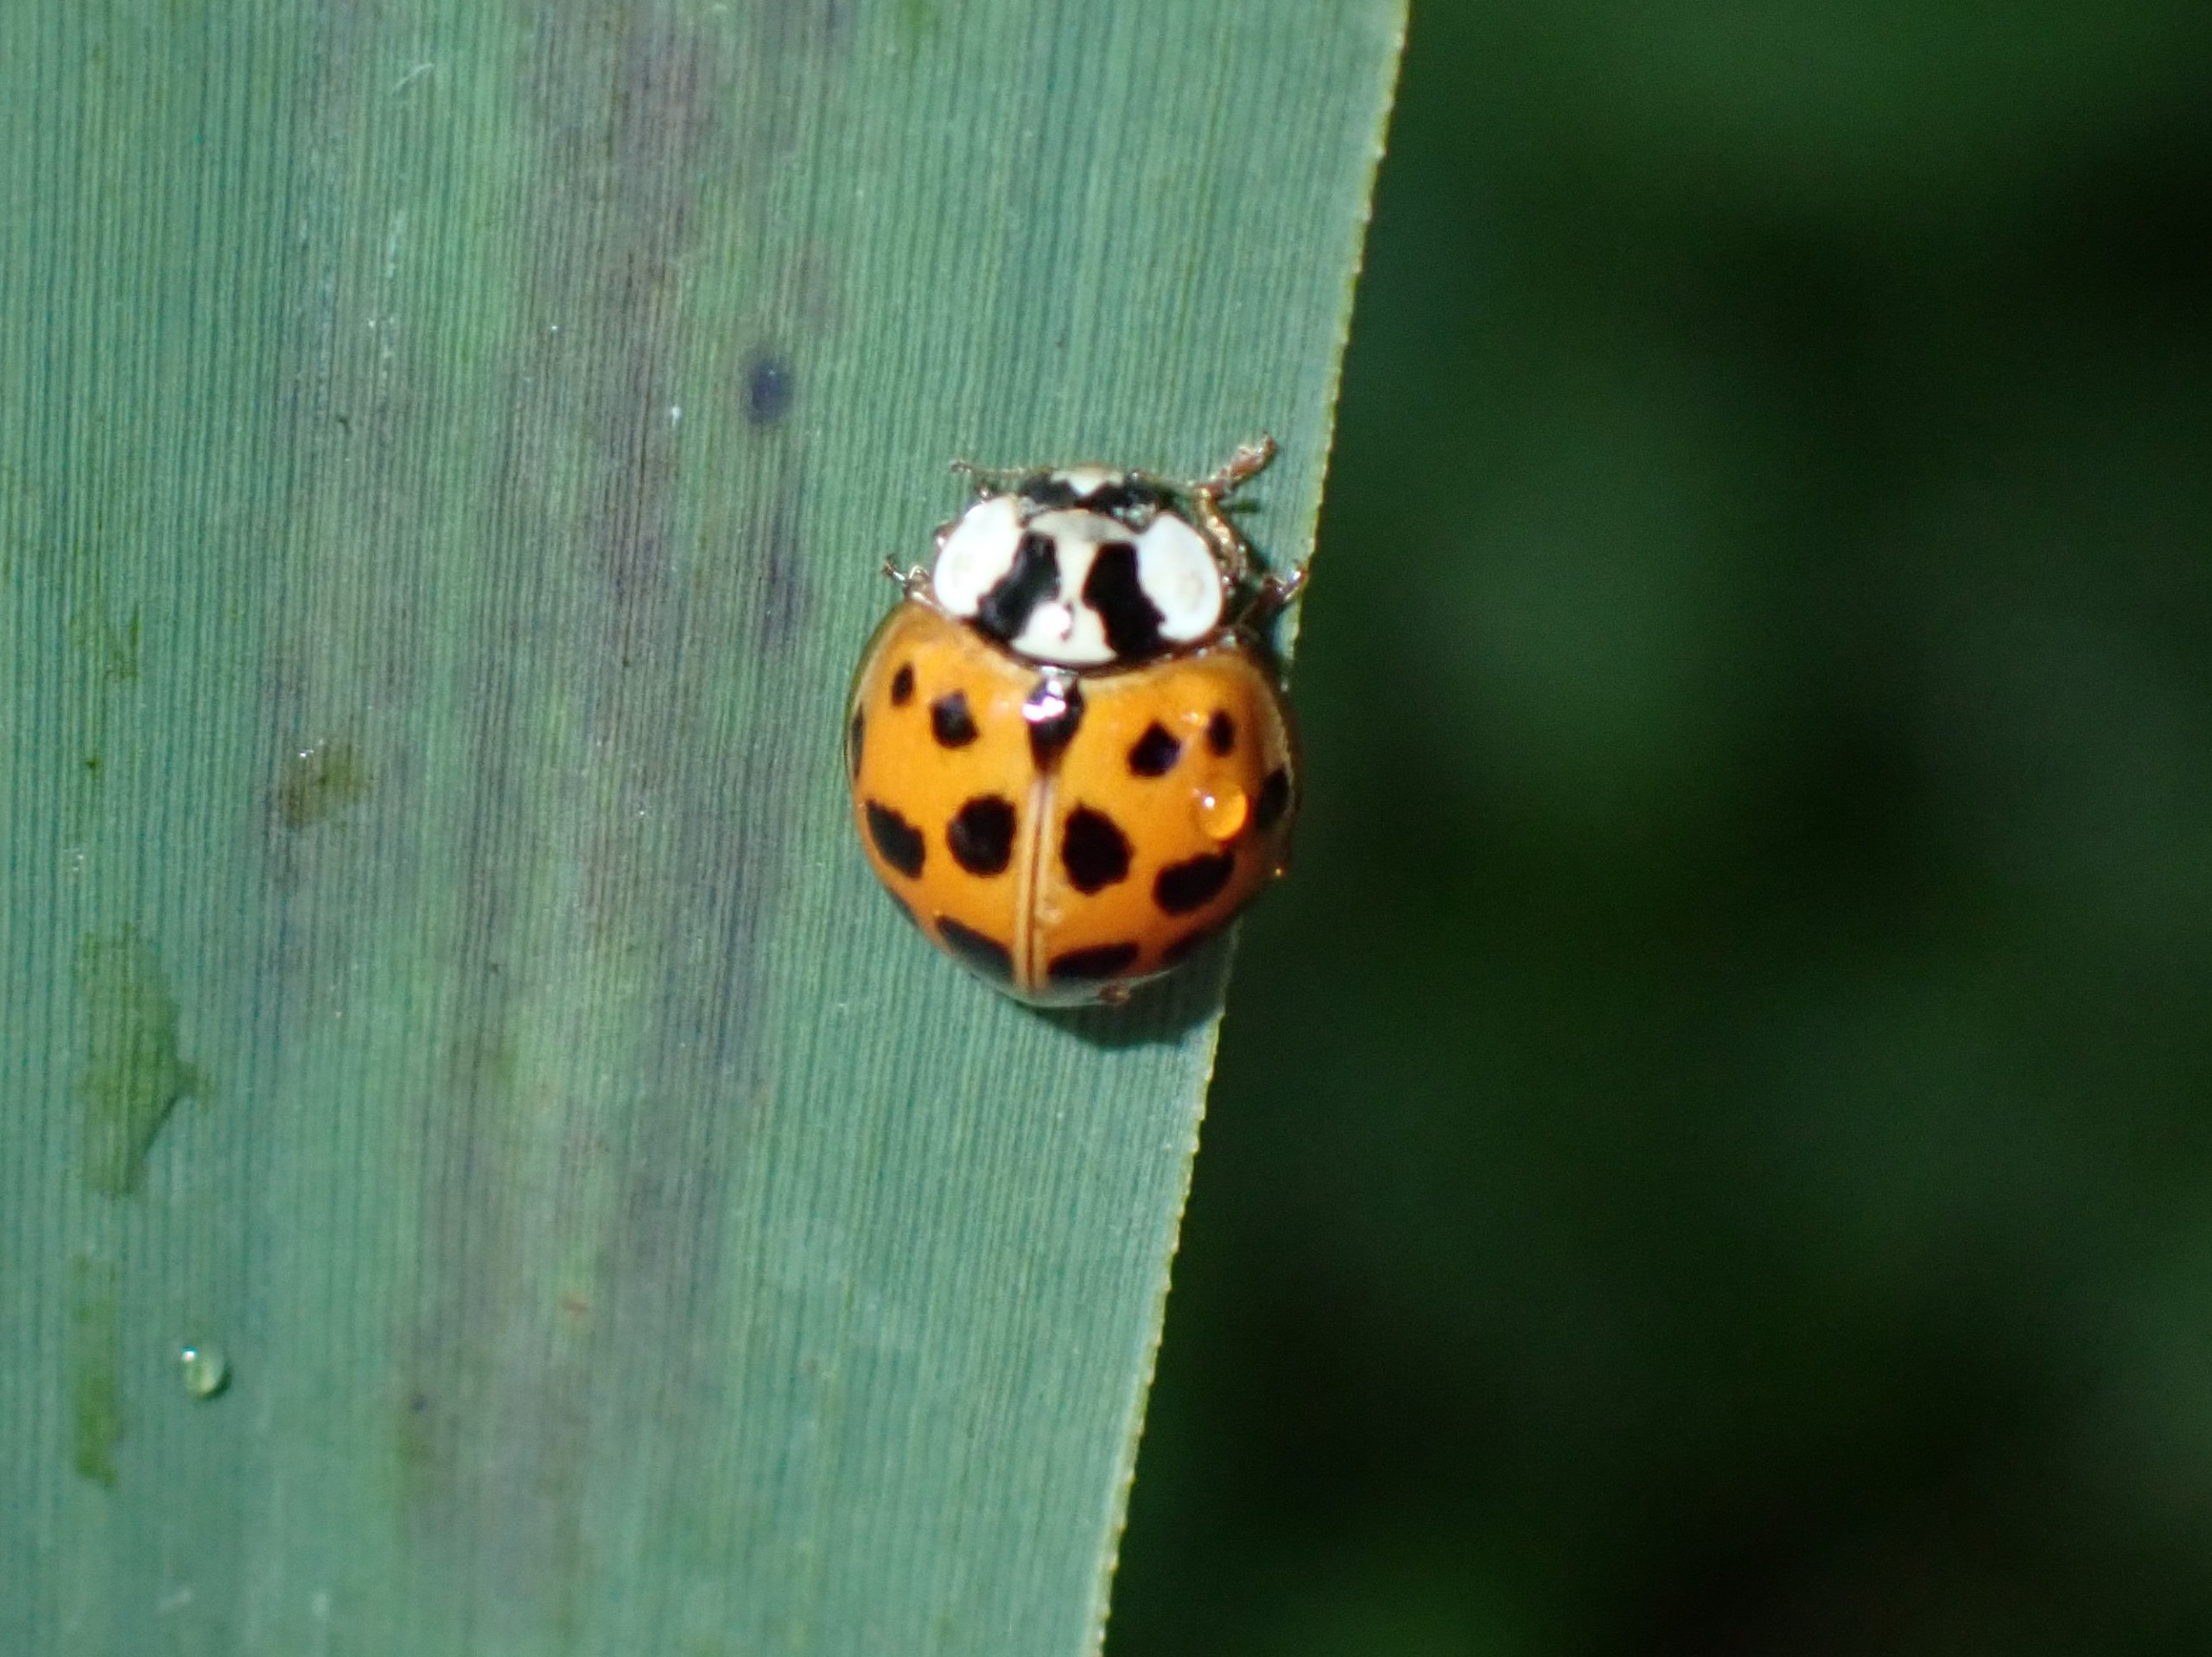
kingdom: Animalia
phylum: Arthropoda
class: Insecta
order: Coleoptera
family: Coccinellidae
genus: Harmonia
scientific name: Harmonia axyridis
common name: Harlekinmariehøne
